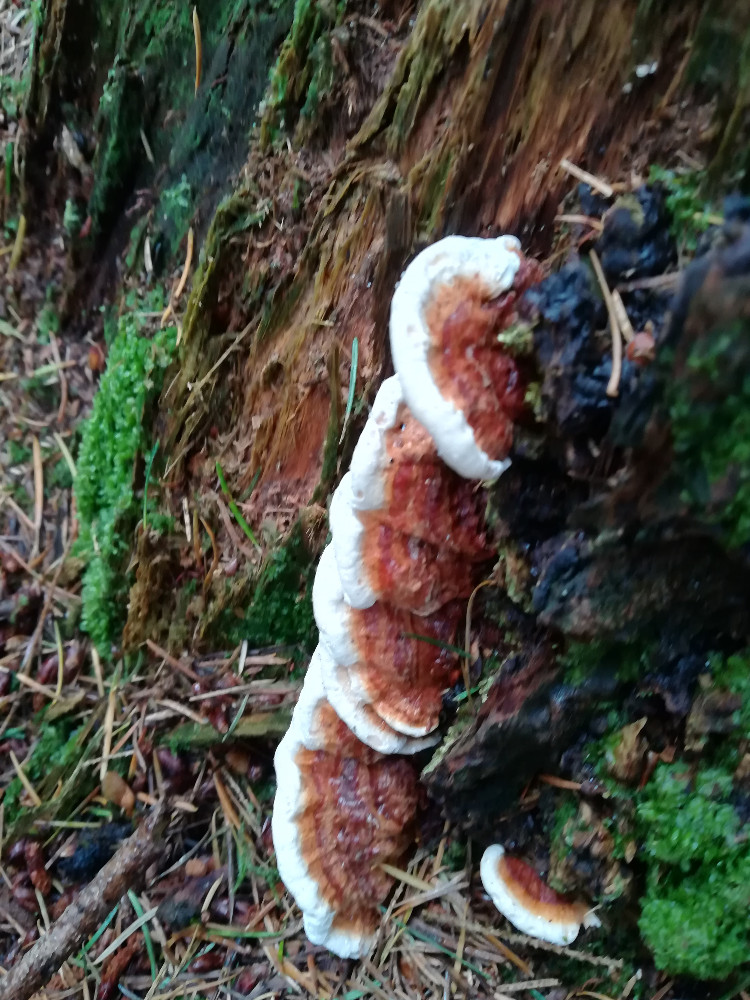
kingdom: Fungi
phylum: Basidiomycota
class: Agaricomycetes
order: Russulales
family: Bondarzewiaceae
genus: Heterobasidion
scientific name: Heterobasidion annosum
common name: almindelig rodfordærver
